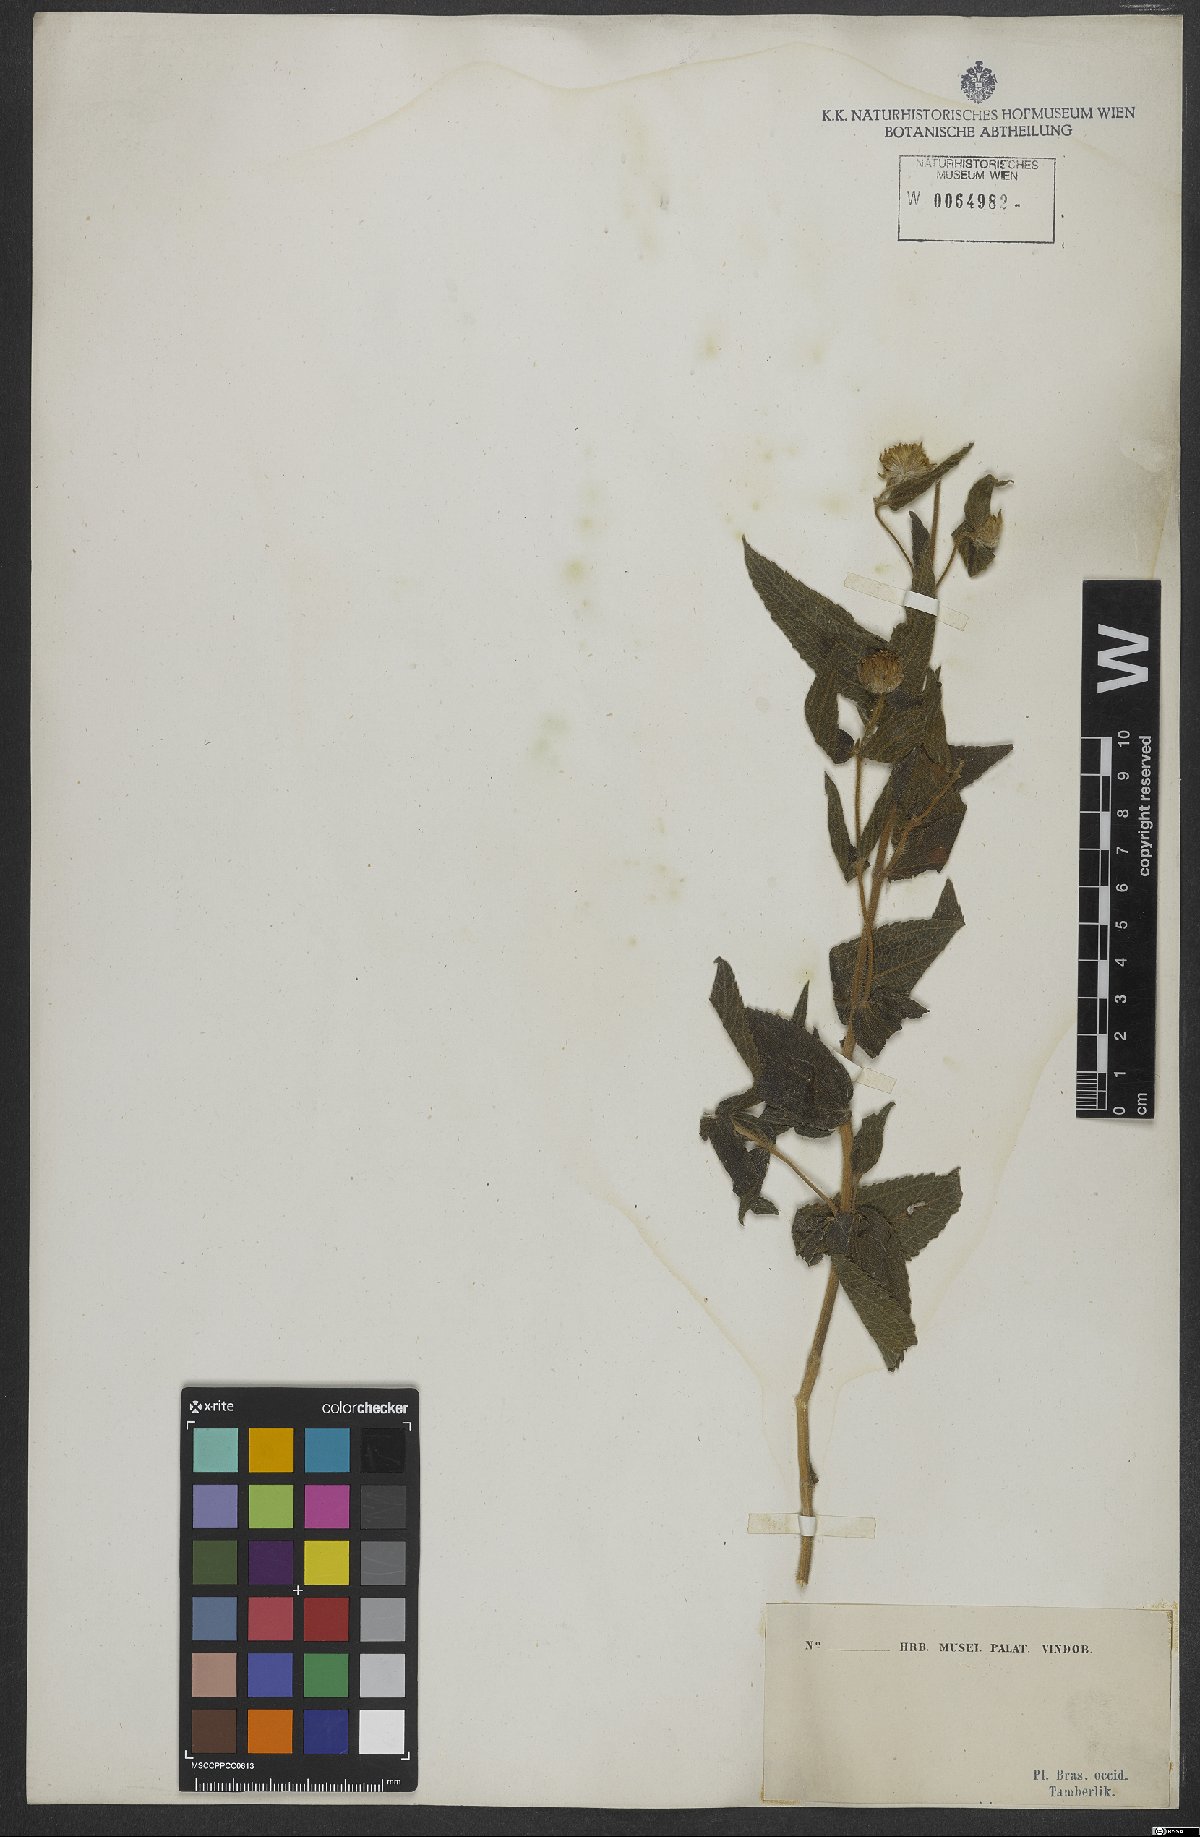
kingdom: Plantae
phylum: Tracheophyta
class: Magnoliopsida
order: Asterales
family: Asteraceae
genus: Wedelia
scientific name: Wedelia
